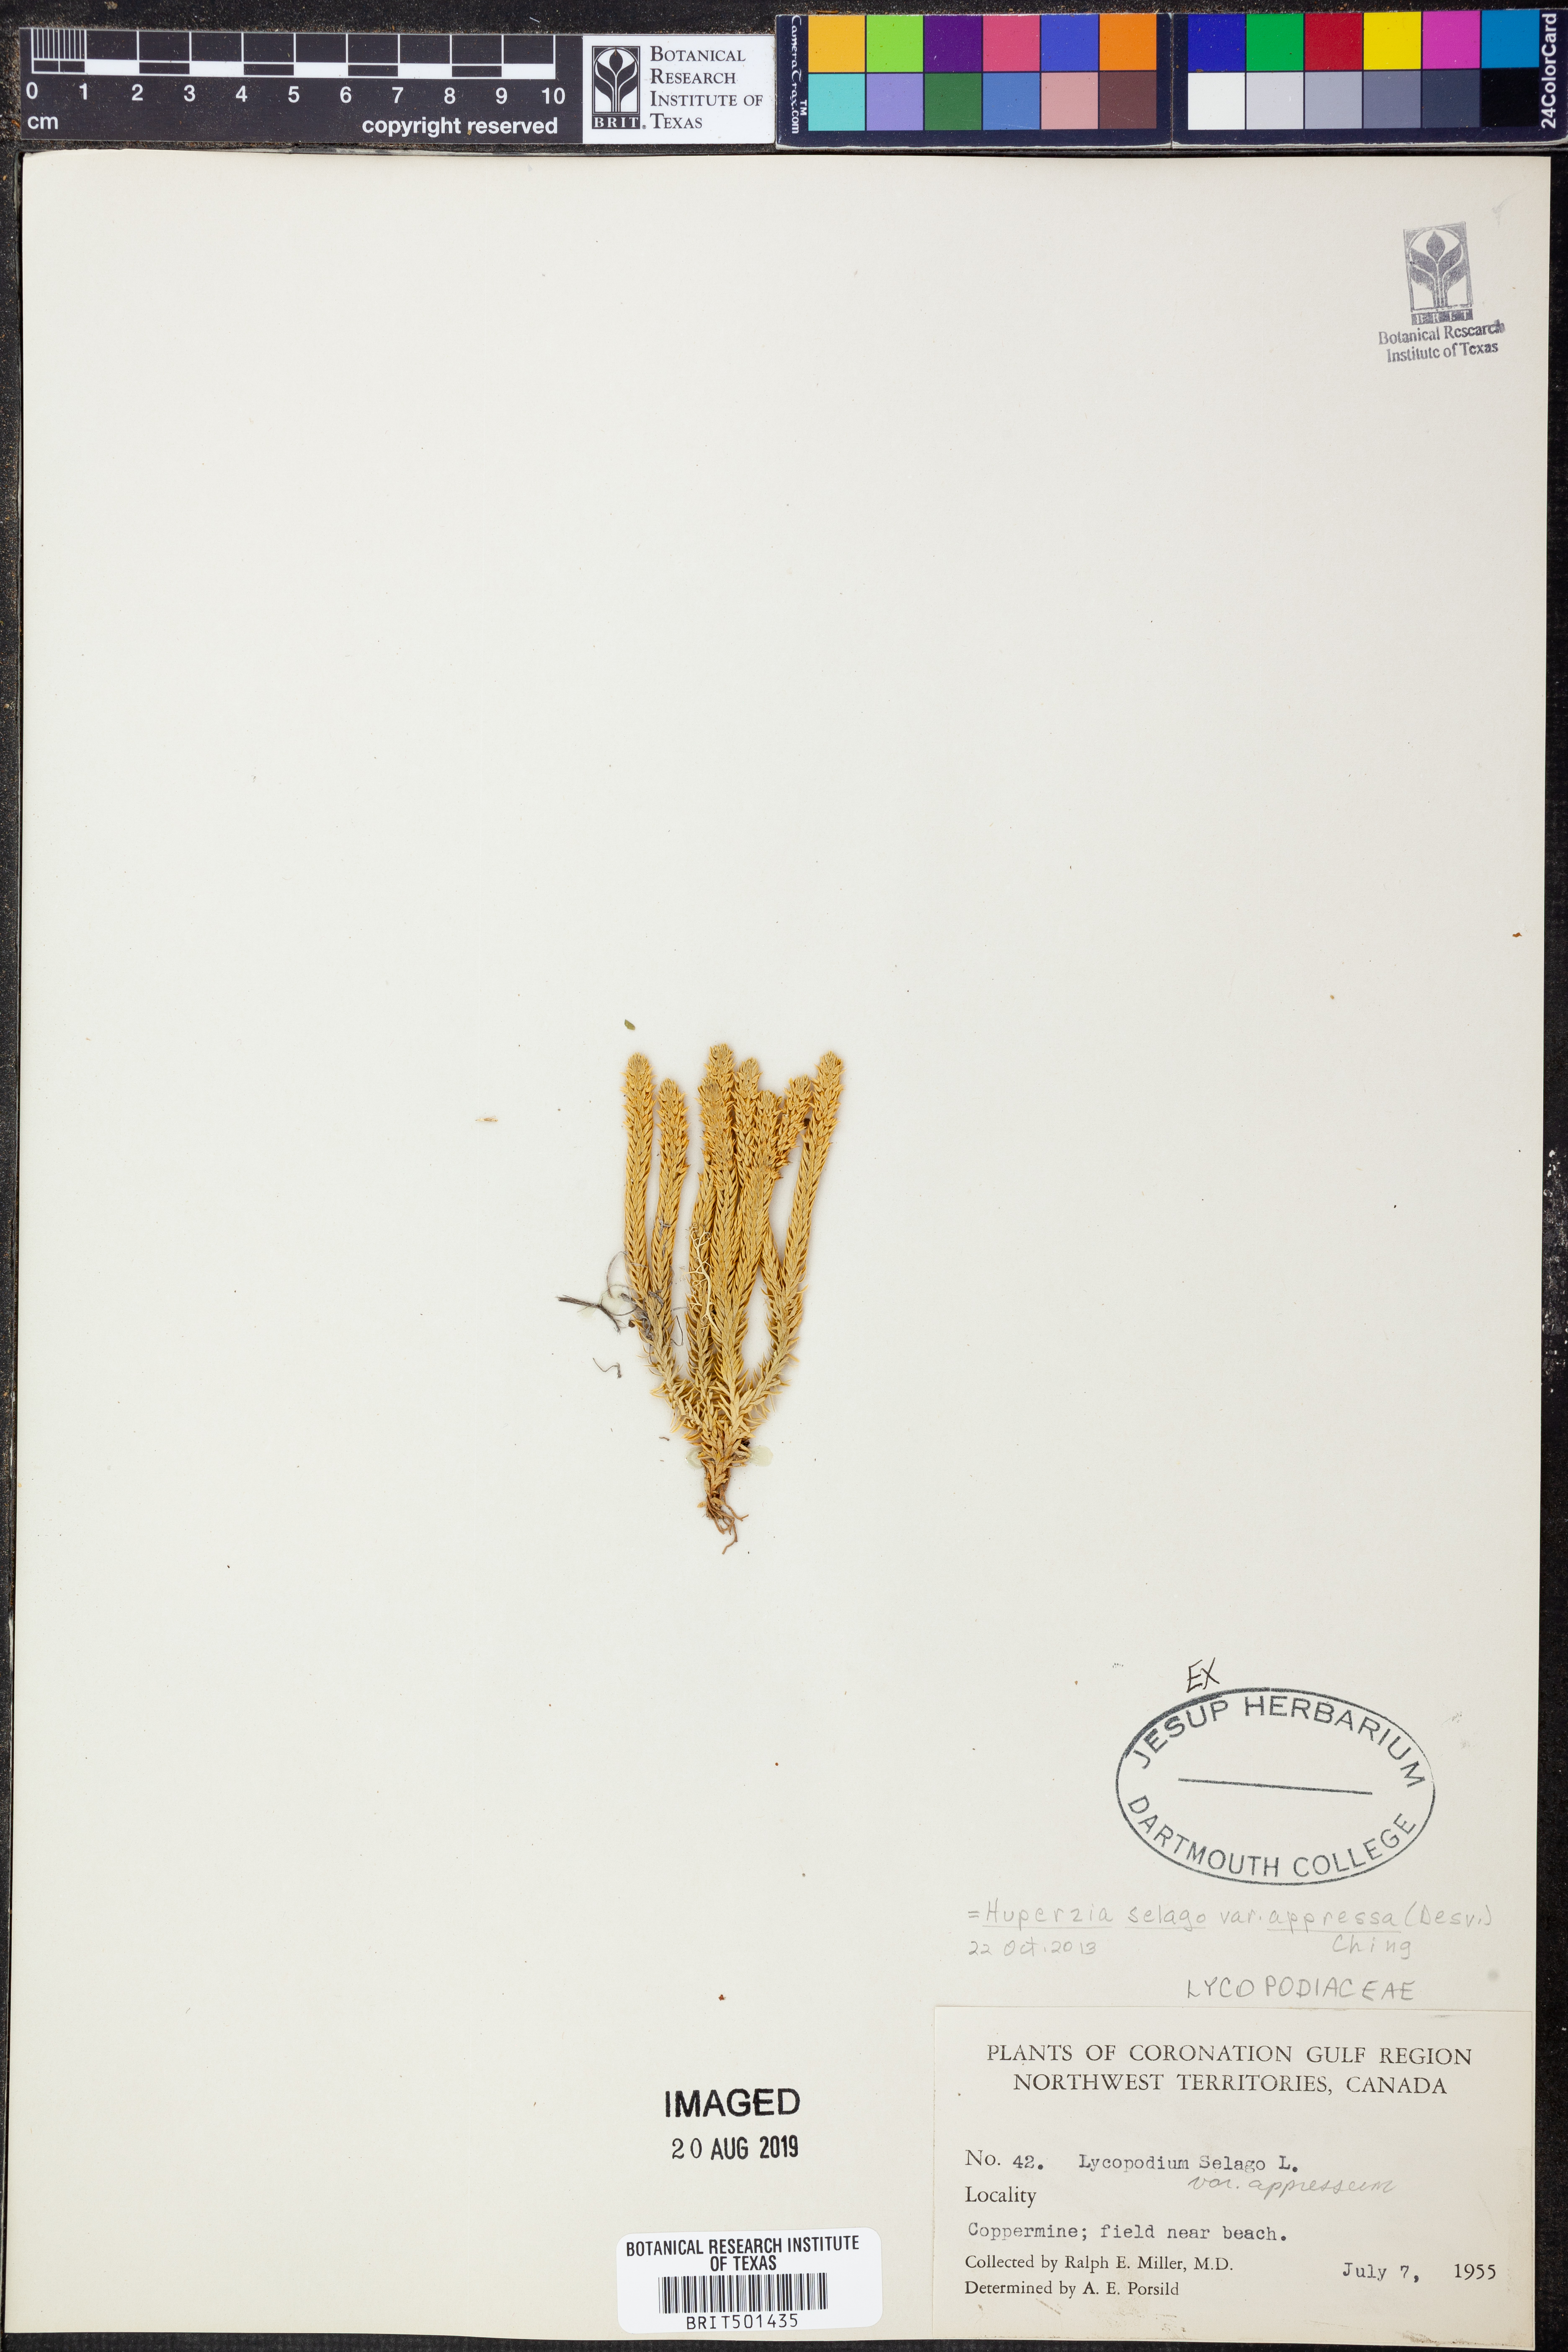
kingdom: Plantae
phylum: Tracheophyta
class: Lycopodiopsida
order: Lycopodiales
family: Lycopodiaceae
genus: Huperzia
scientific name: Huperzia selago
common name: Northern firmoss
